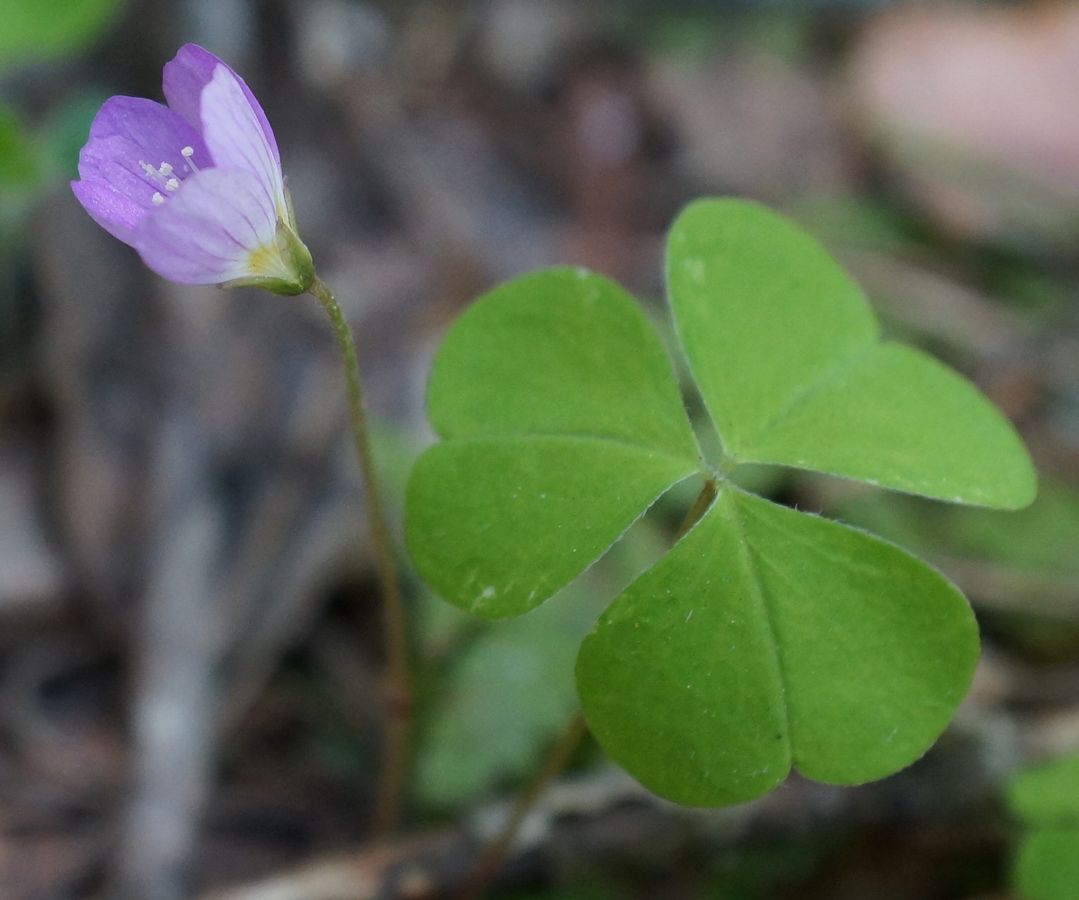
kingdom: Plantae
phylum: Tracheophyta
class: Magnoliopsida
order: Oxalidales
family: Oxalidaceae
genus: Oxalis
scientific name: Oxalis acetosella
